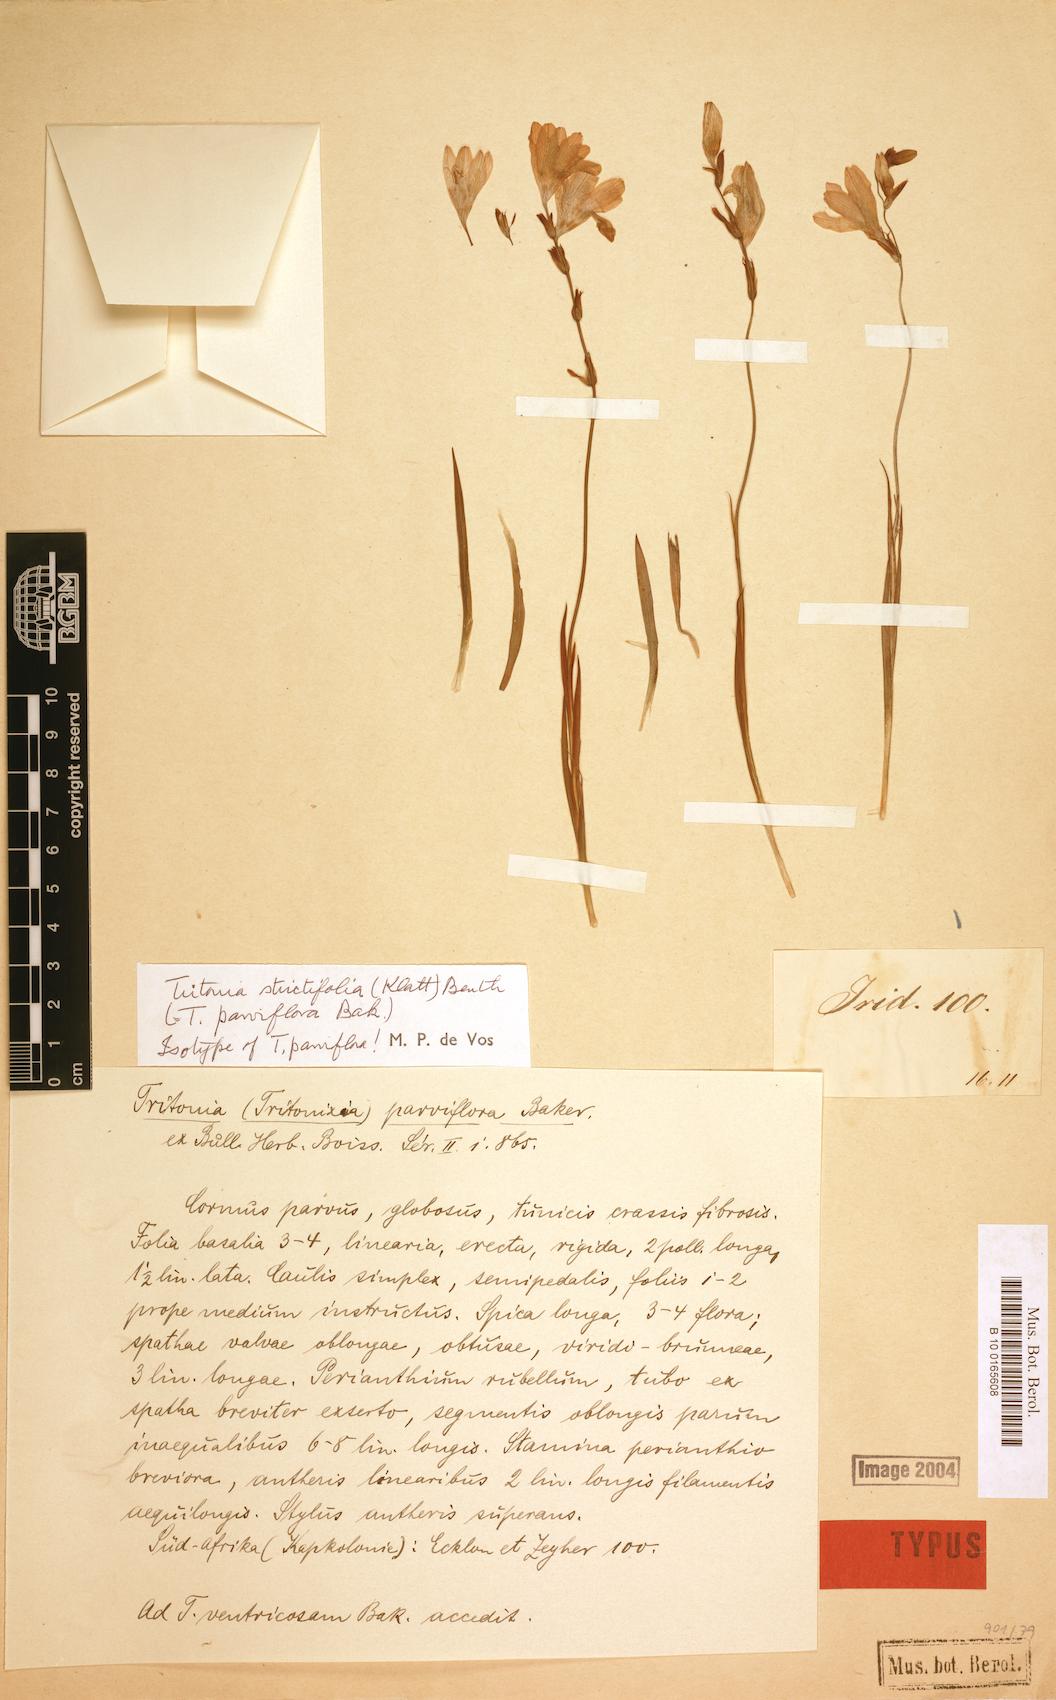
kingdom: Plantae
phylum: Tracheophyta
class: Liliopsida
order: Asparagales
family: Iridaceae
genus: Tritonia
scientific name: Tritonia strictifolia
